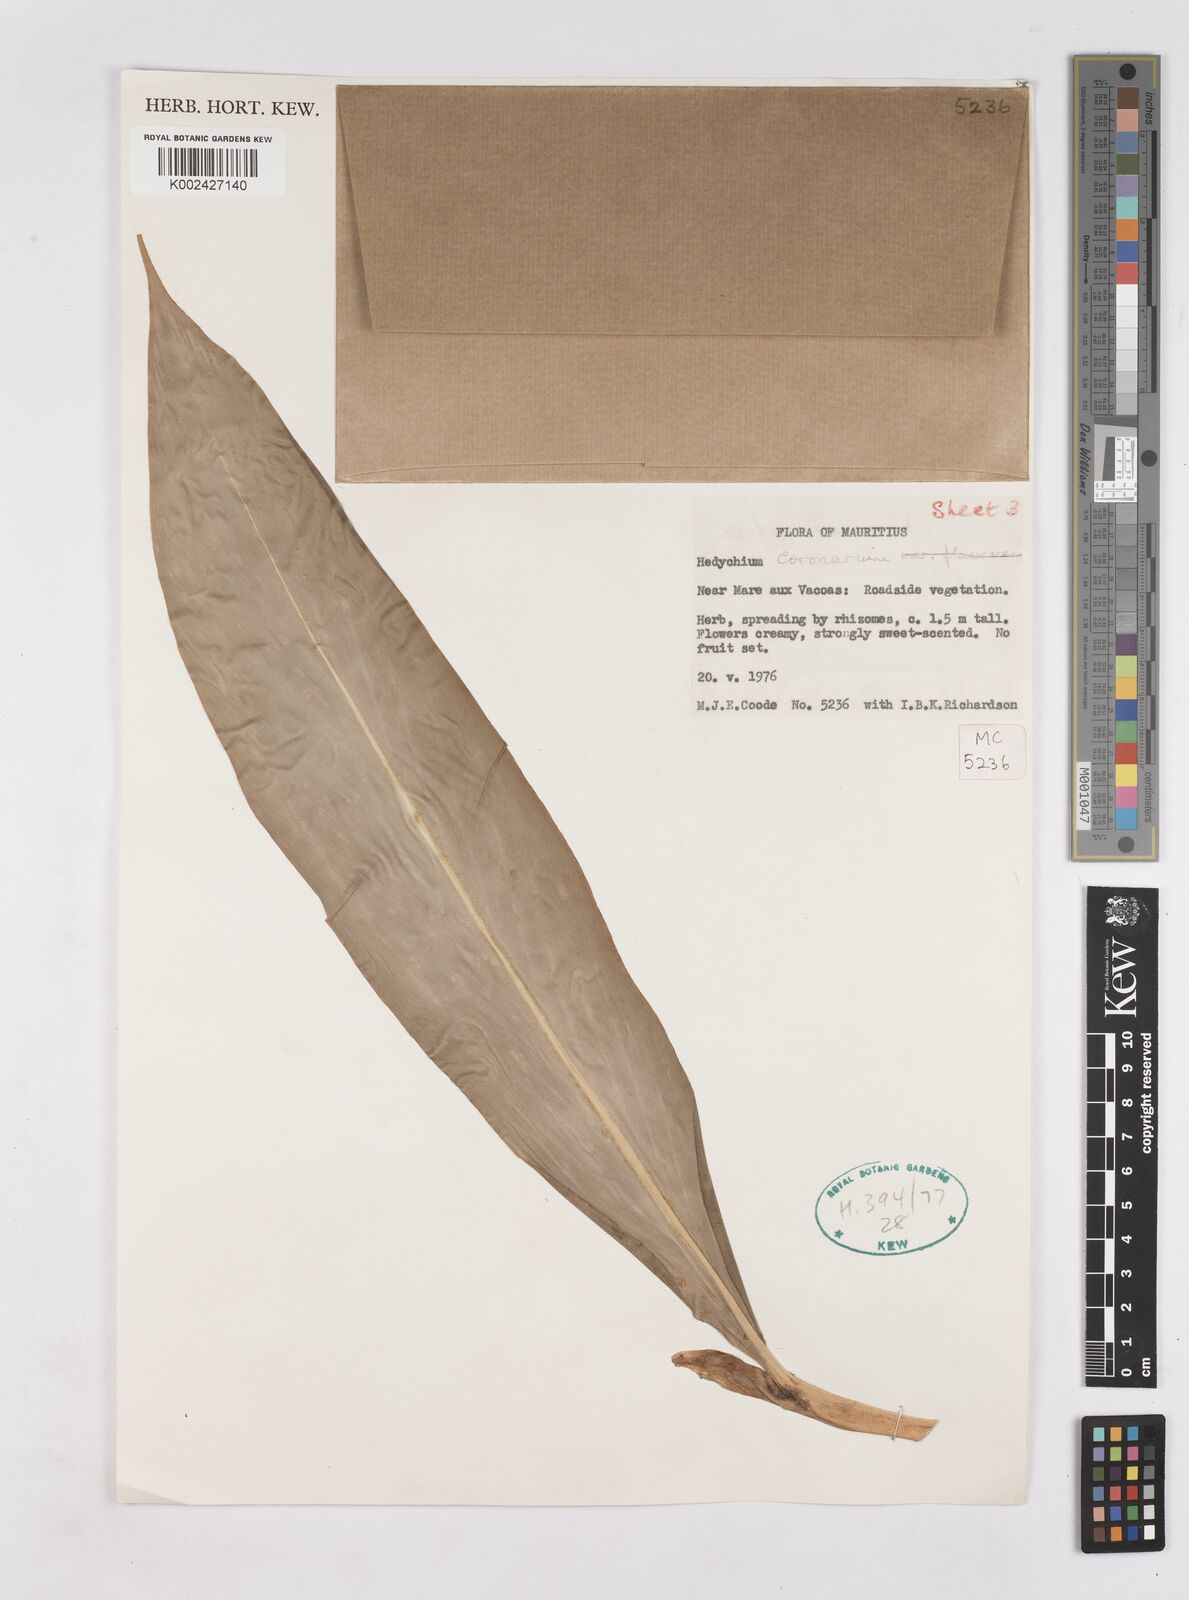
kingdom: Plantae
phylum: Tracheophyta
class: Liliopsida
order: Zingiberales
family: Zingiberaceae
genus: Hedychium
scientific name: Hedychium coronarium
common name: White garland-lily
